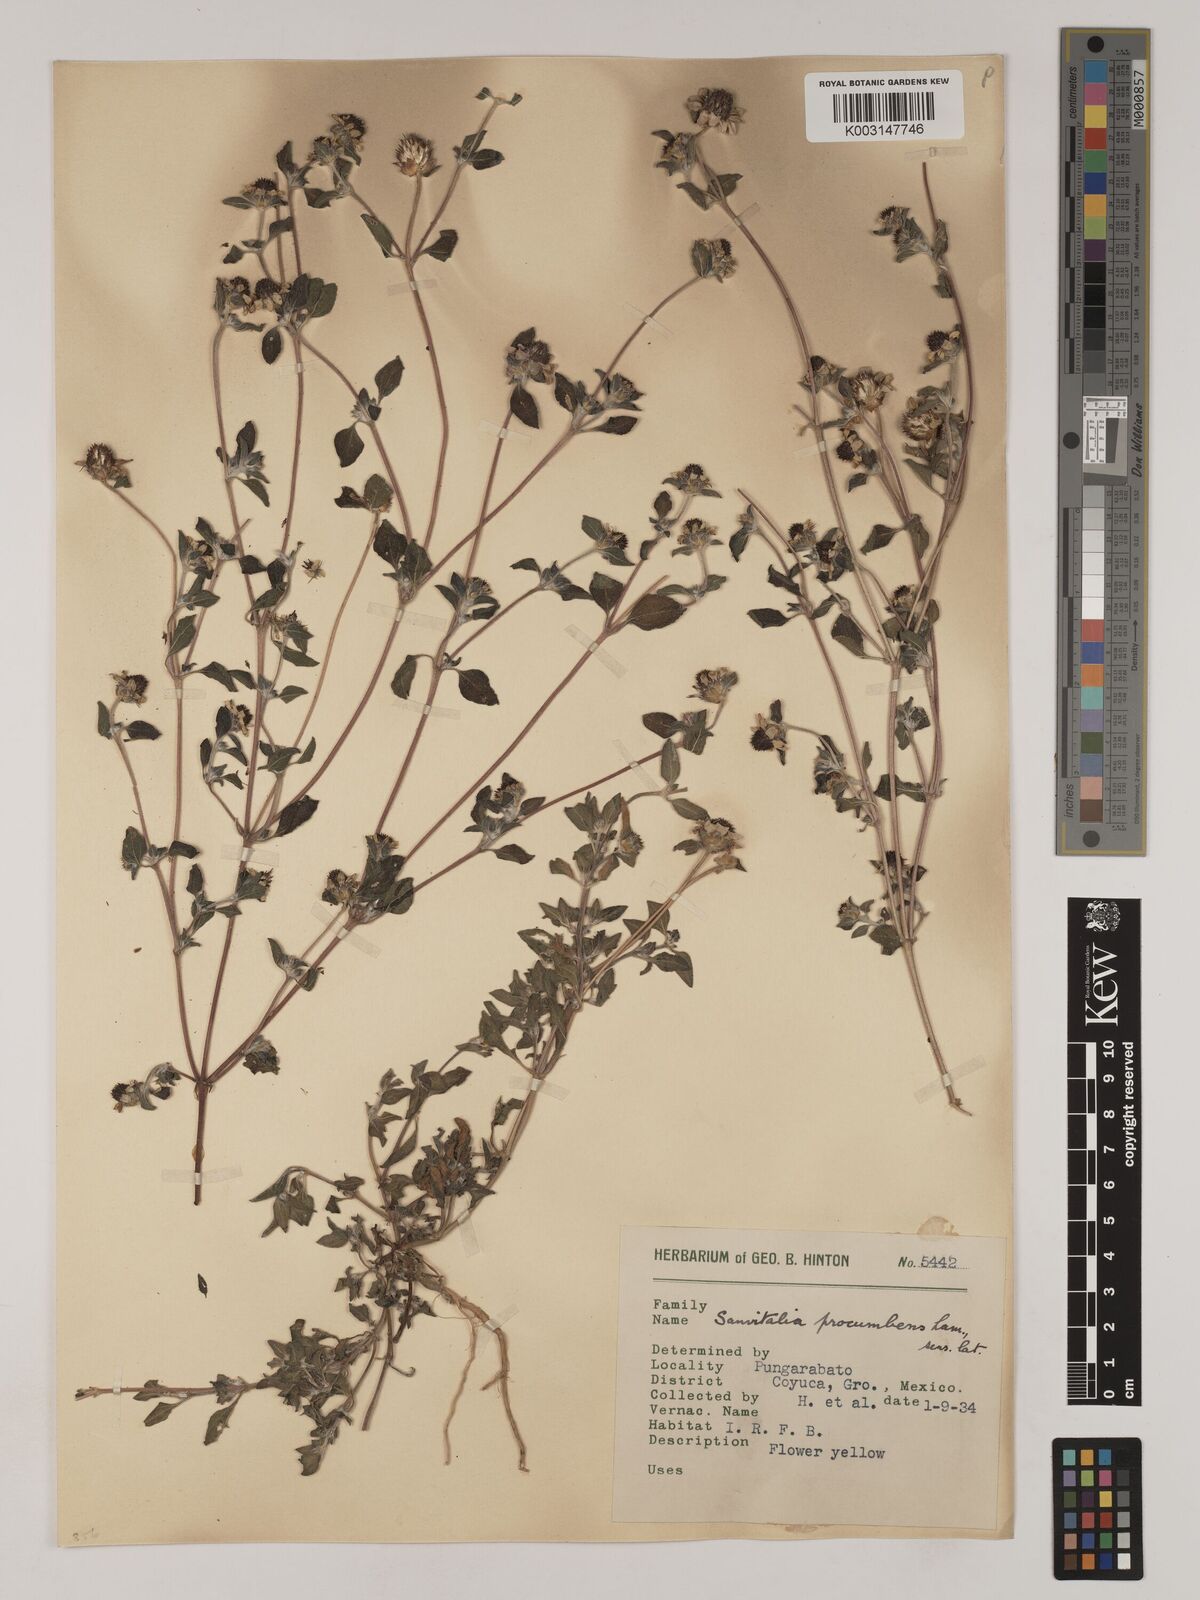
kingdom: Plantae
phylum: Tracheophyta
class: Magnoliopsida
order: Asterales
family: Asteraceae
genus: Sanvitalia
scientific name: Sanvitalia procumbens
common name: Mexican creeping zinnia
